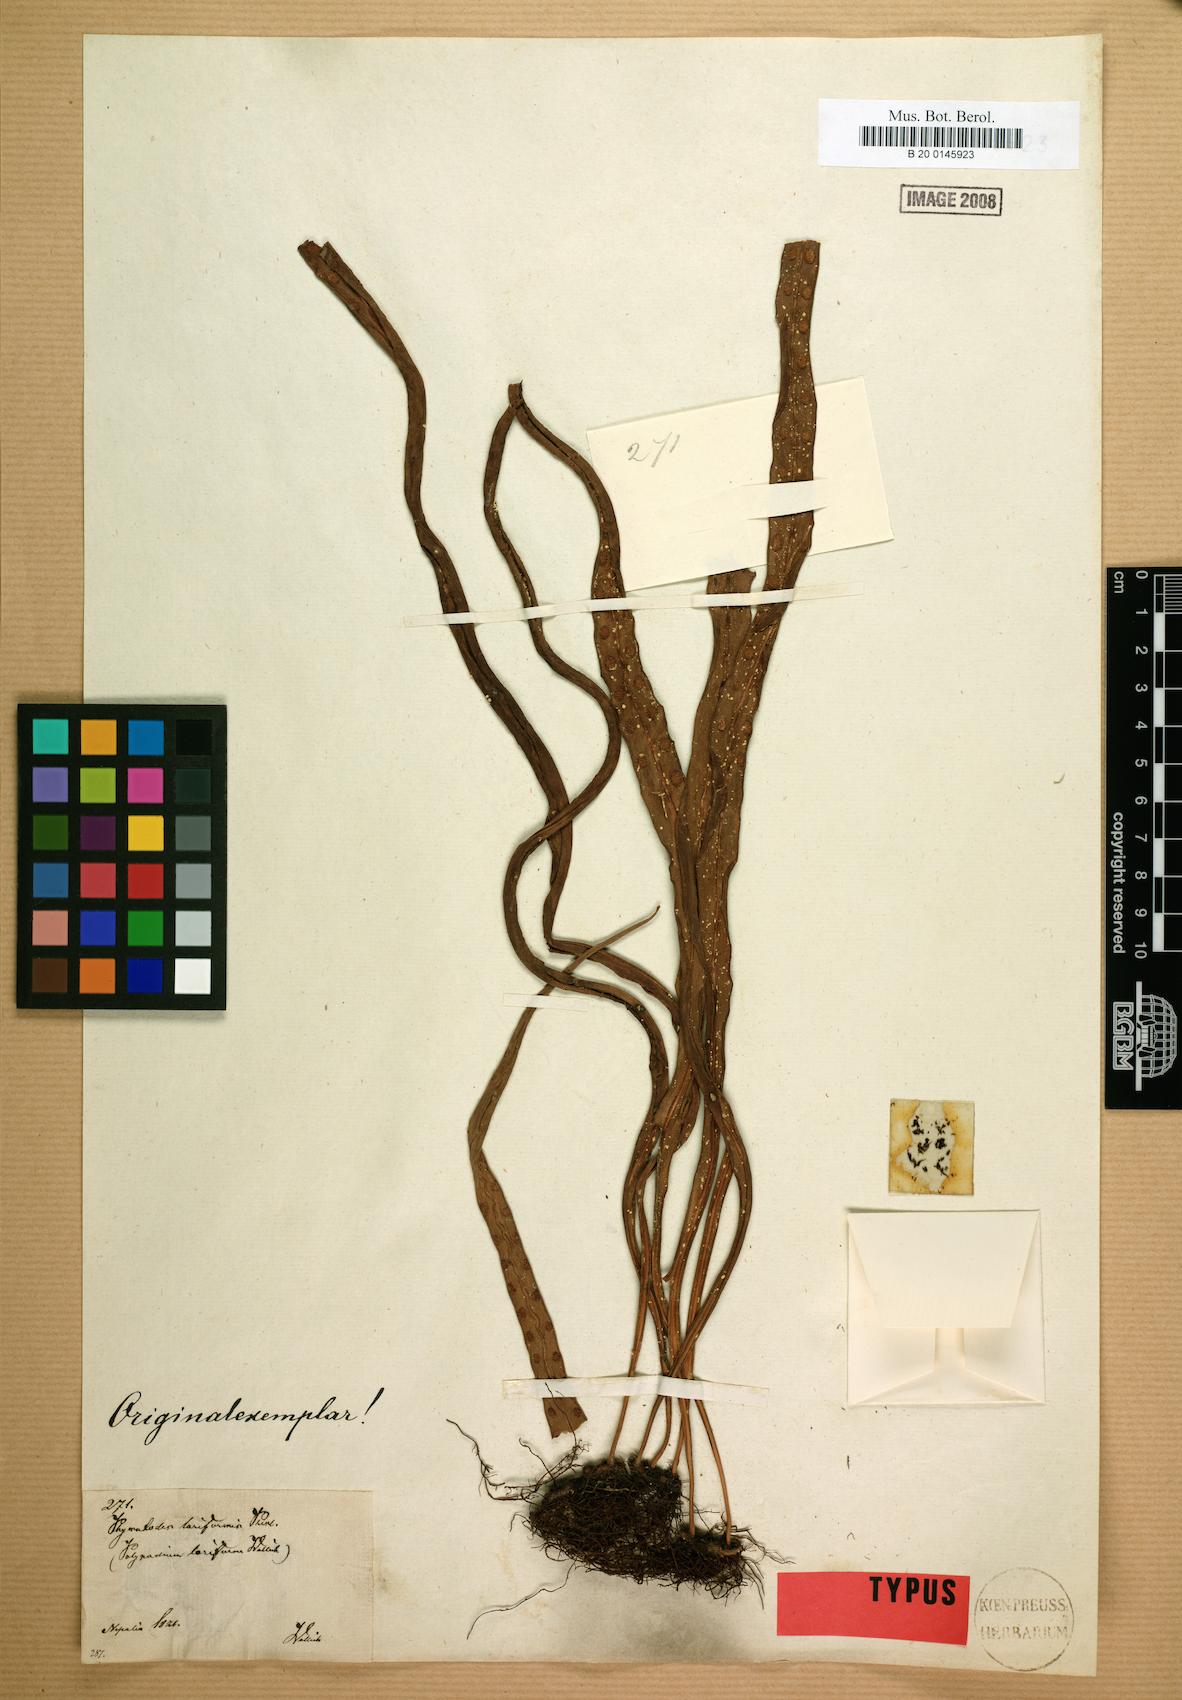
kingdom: Plantae
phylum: Tracheophyta
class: Polypodiopsida
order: Polypodiales
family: Polypodiaceae
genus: Lepisorus
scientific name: Lepisorus loriformis
